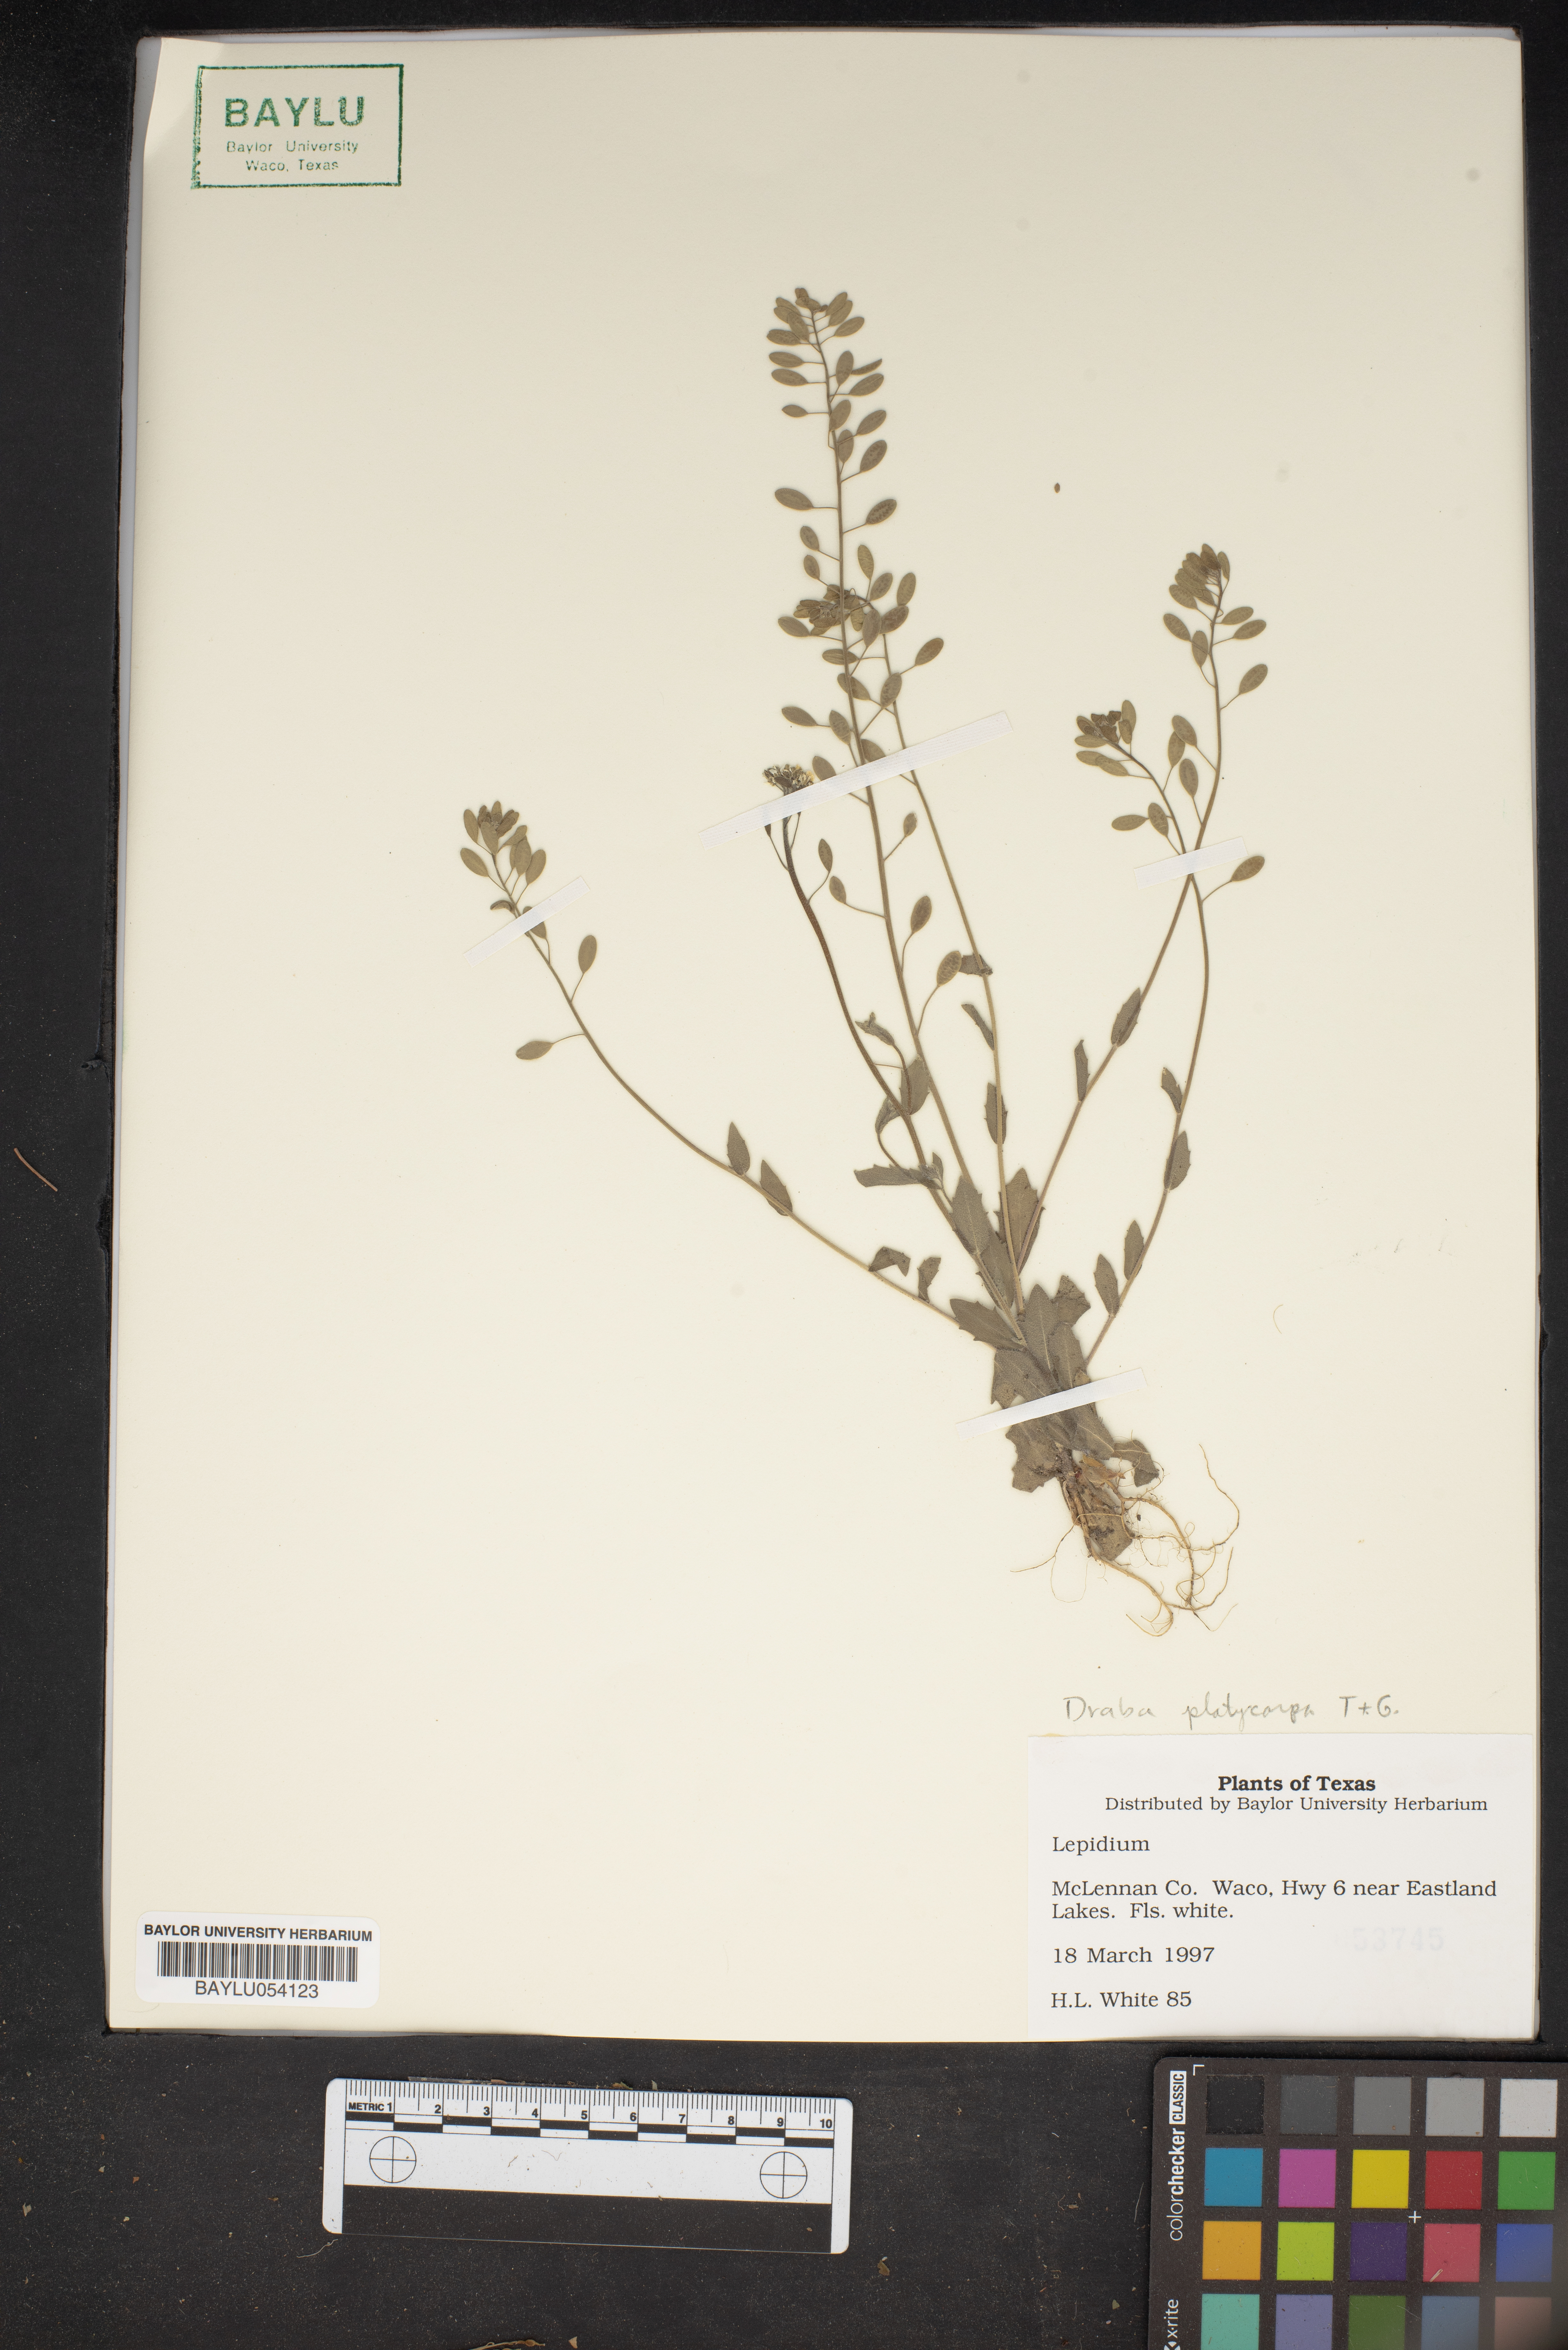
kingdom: Plantae
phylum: Tracheophyta
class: Magnoliopsida
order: Brassicales
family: Brassicaceae
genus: Lepidium
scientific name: Lepidium
